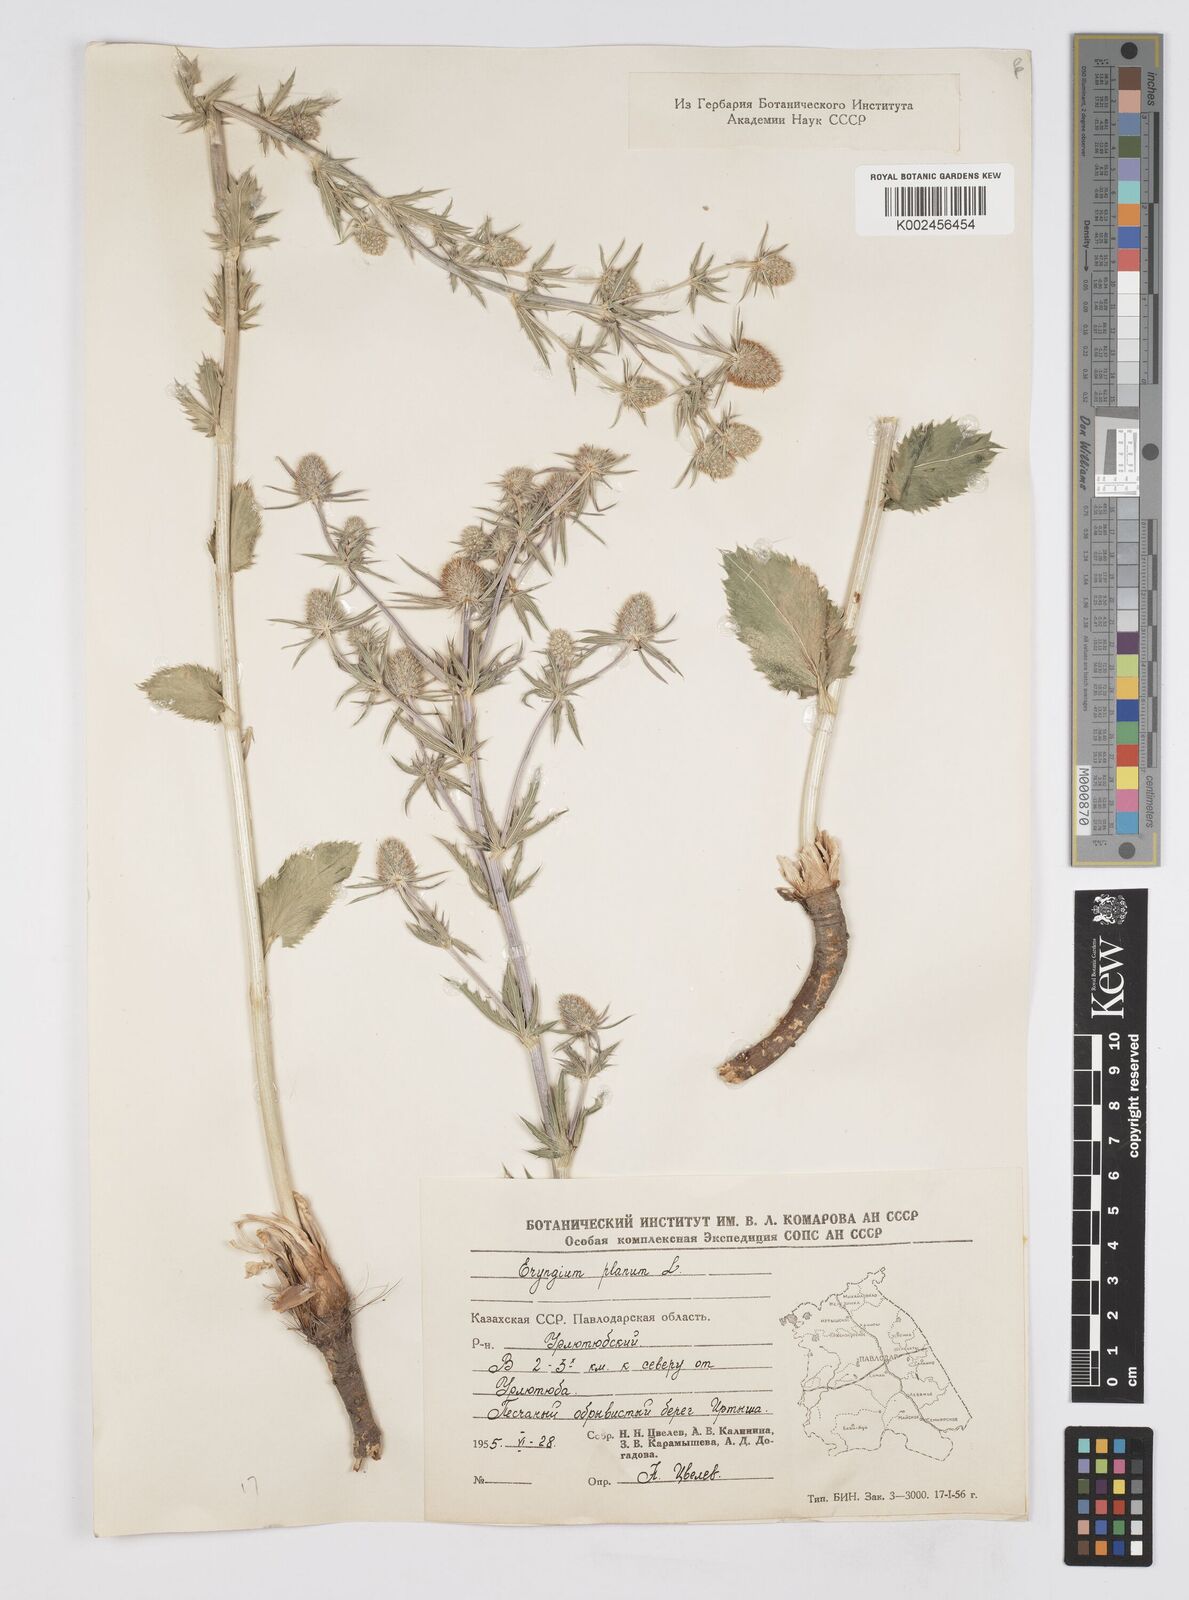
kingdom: Plantae
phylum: Tracheophyta
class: Magnoliopsida
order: Apiales
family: Apiaceae
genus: Eryngium
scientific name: Eryngium planum
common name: Blue eryngo
